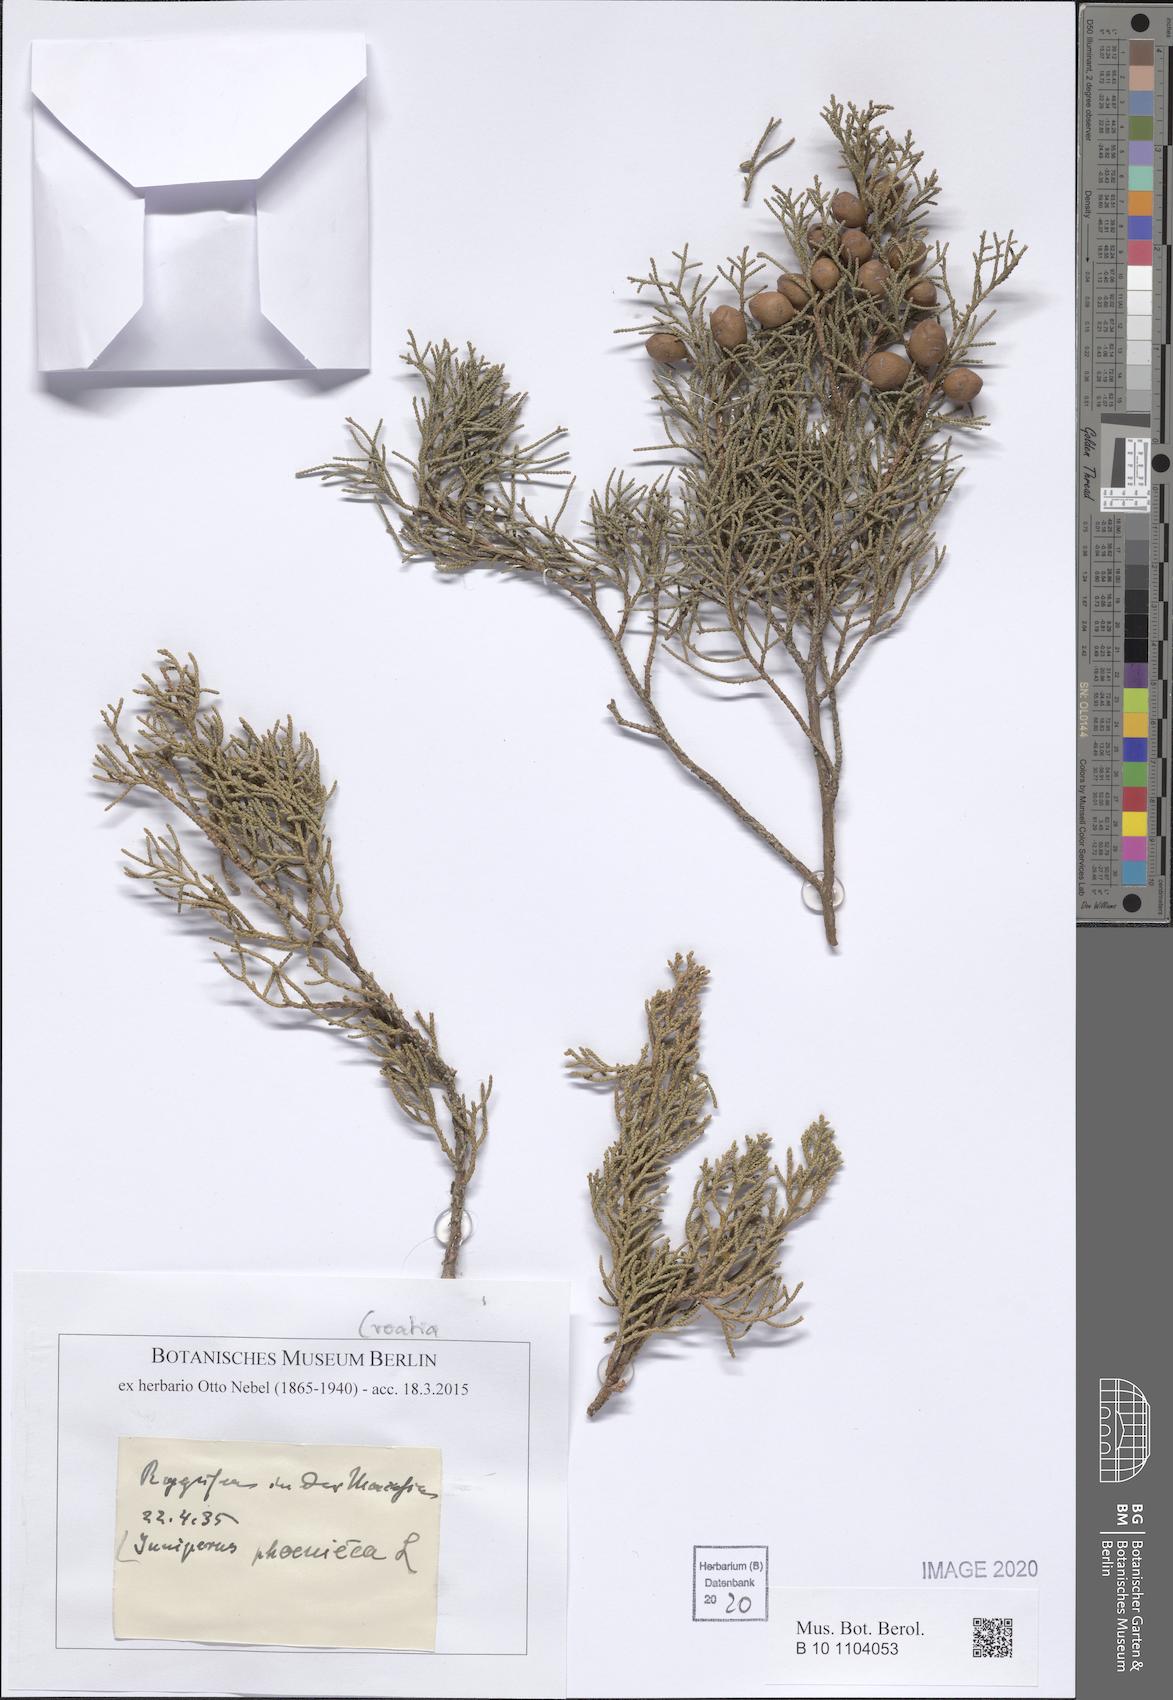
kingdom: Plantae
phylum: Tracheophyta
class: Pinopsida
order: Pinales
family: Cupressaceae
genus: Juniperus
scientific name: Juniperus phoenicea
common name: Phoenician juniper
